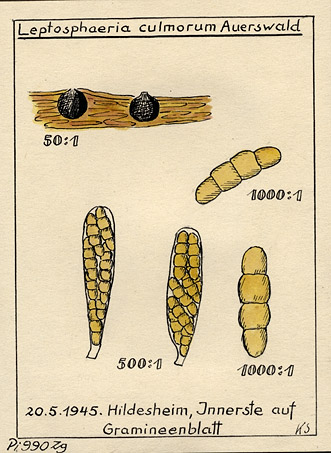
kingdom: Fungi
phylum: Ascomycota
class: Dothideomycetes
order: Pleosporales
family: Phaeosphaeriaceae
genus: Phaeosphaeria
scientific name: Phaeosphaeria culmorum
